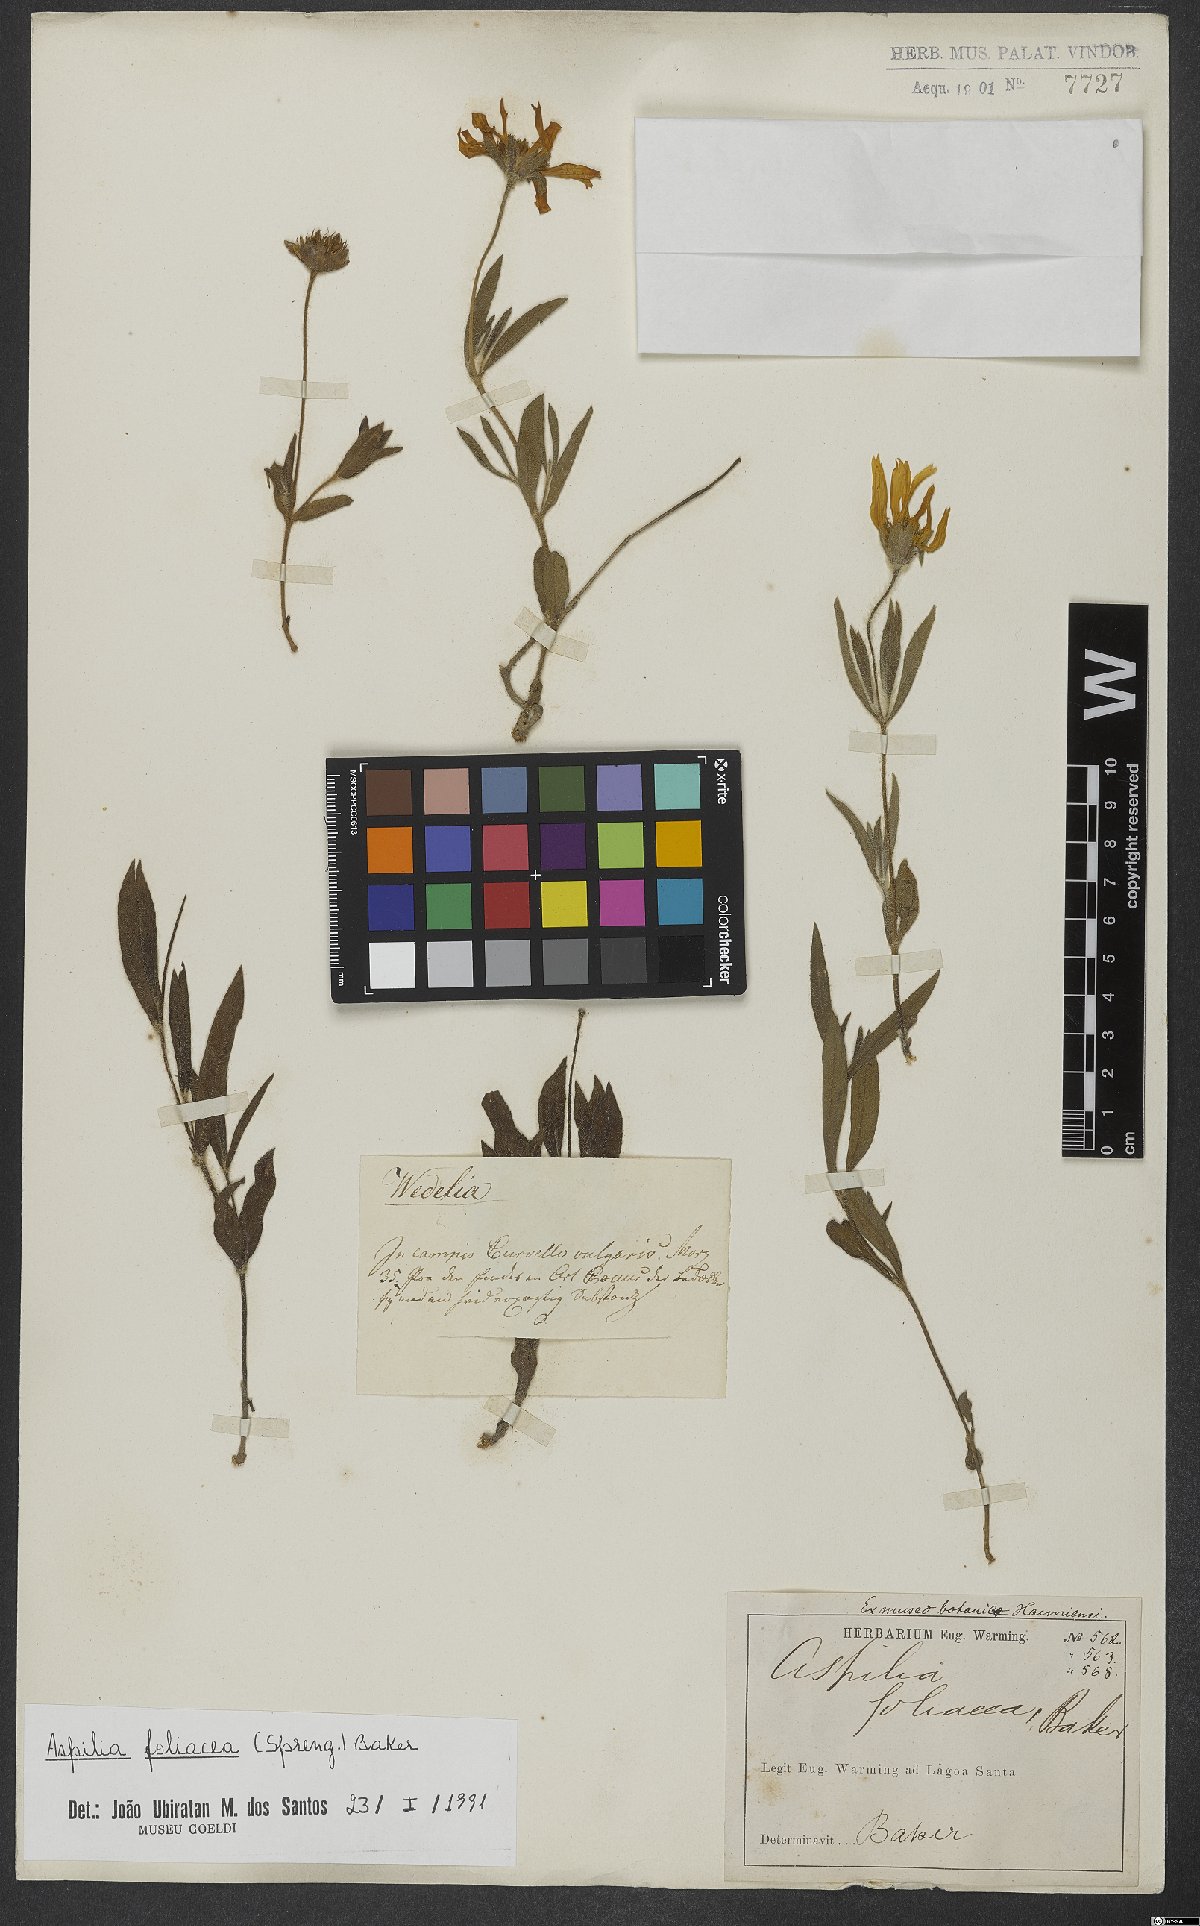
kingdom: Plantae
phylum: Tracheophyta
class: Magnoliopsida
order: Asterales
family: Asteraceae
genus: Aspilia
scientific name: Aspilia foliosa
